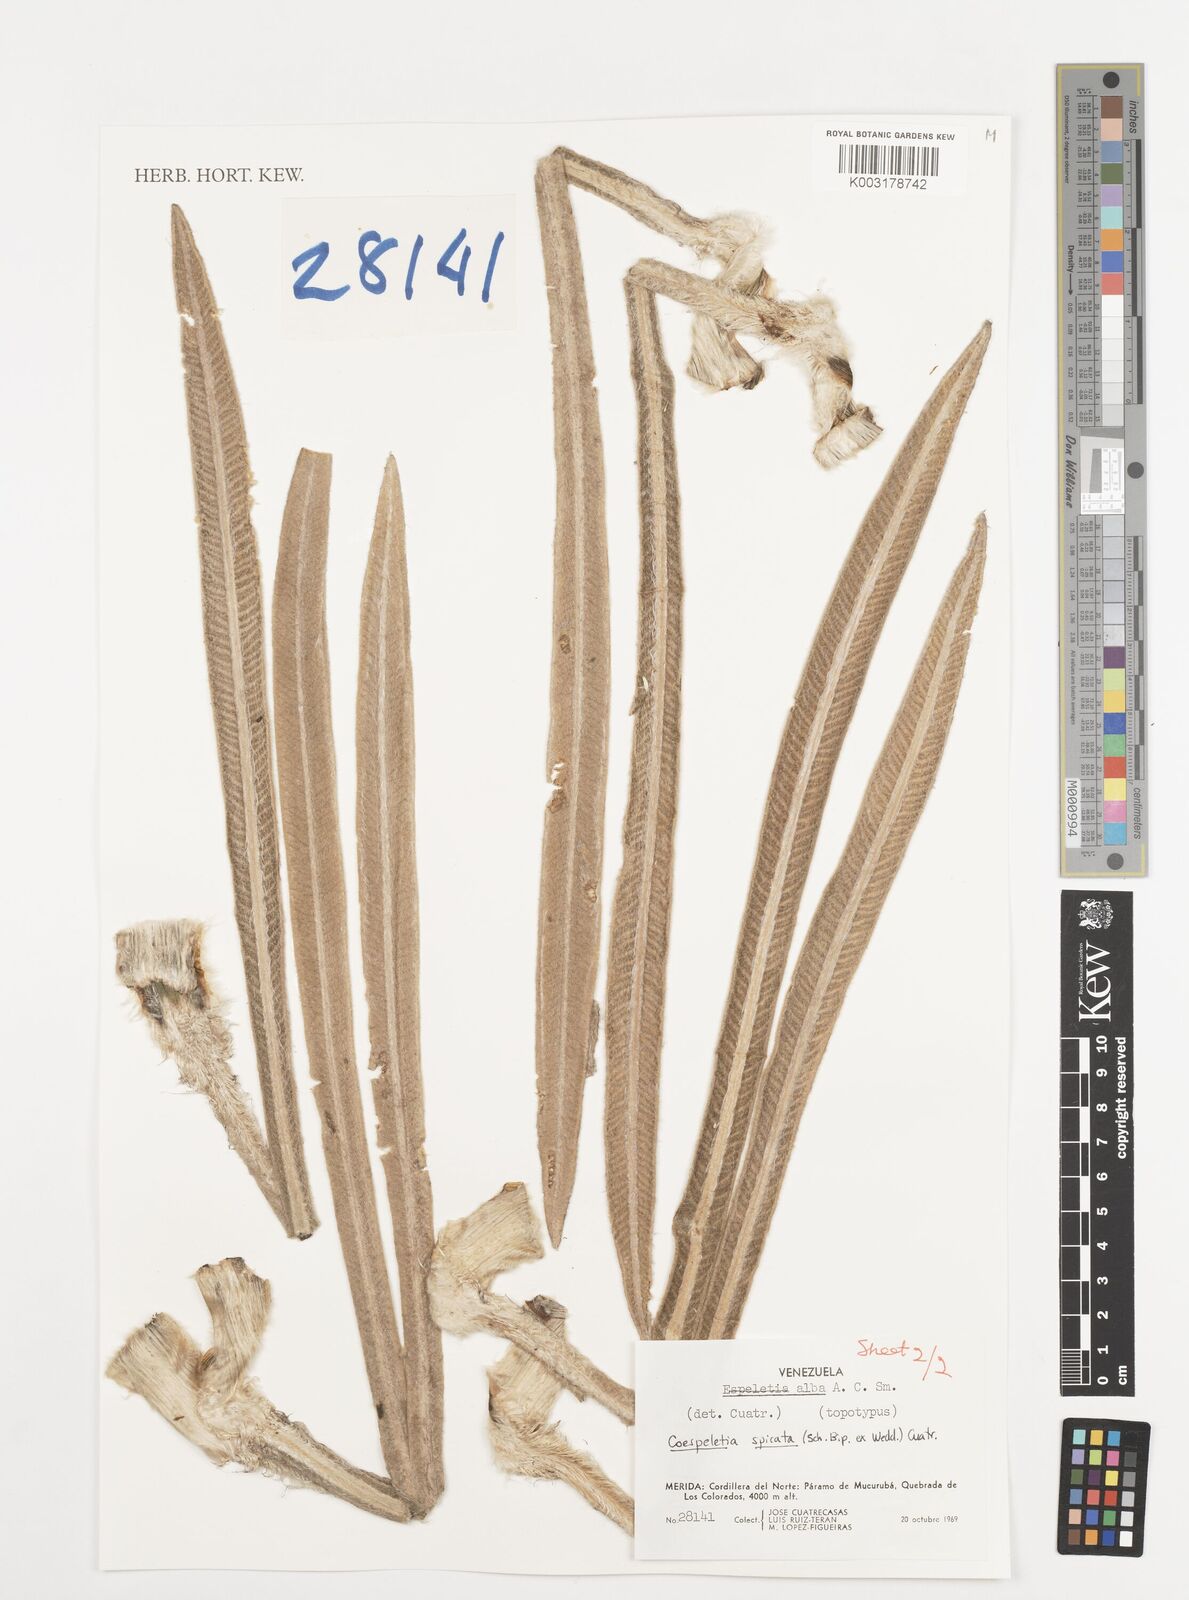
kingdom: Plantae
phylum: Tracheophyta
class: Magnoliopsida
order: Asterales
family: Asteraceae
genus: Espeletia
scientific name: Espeletia spicata
